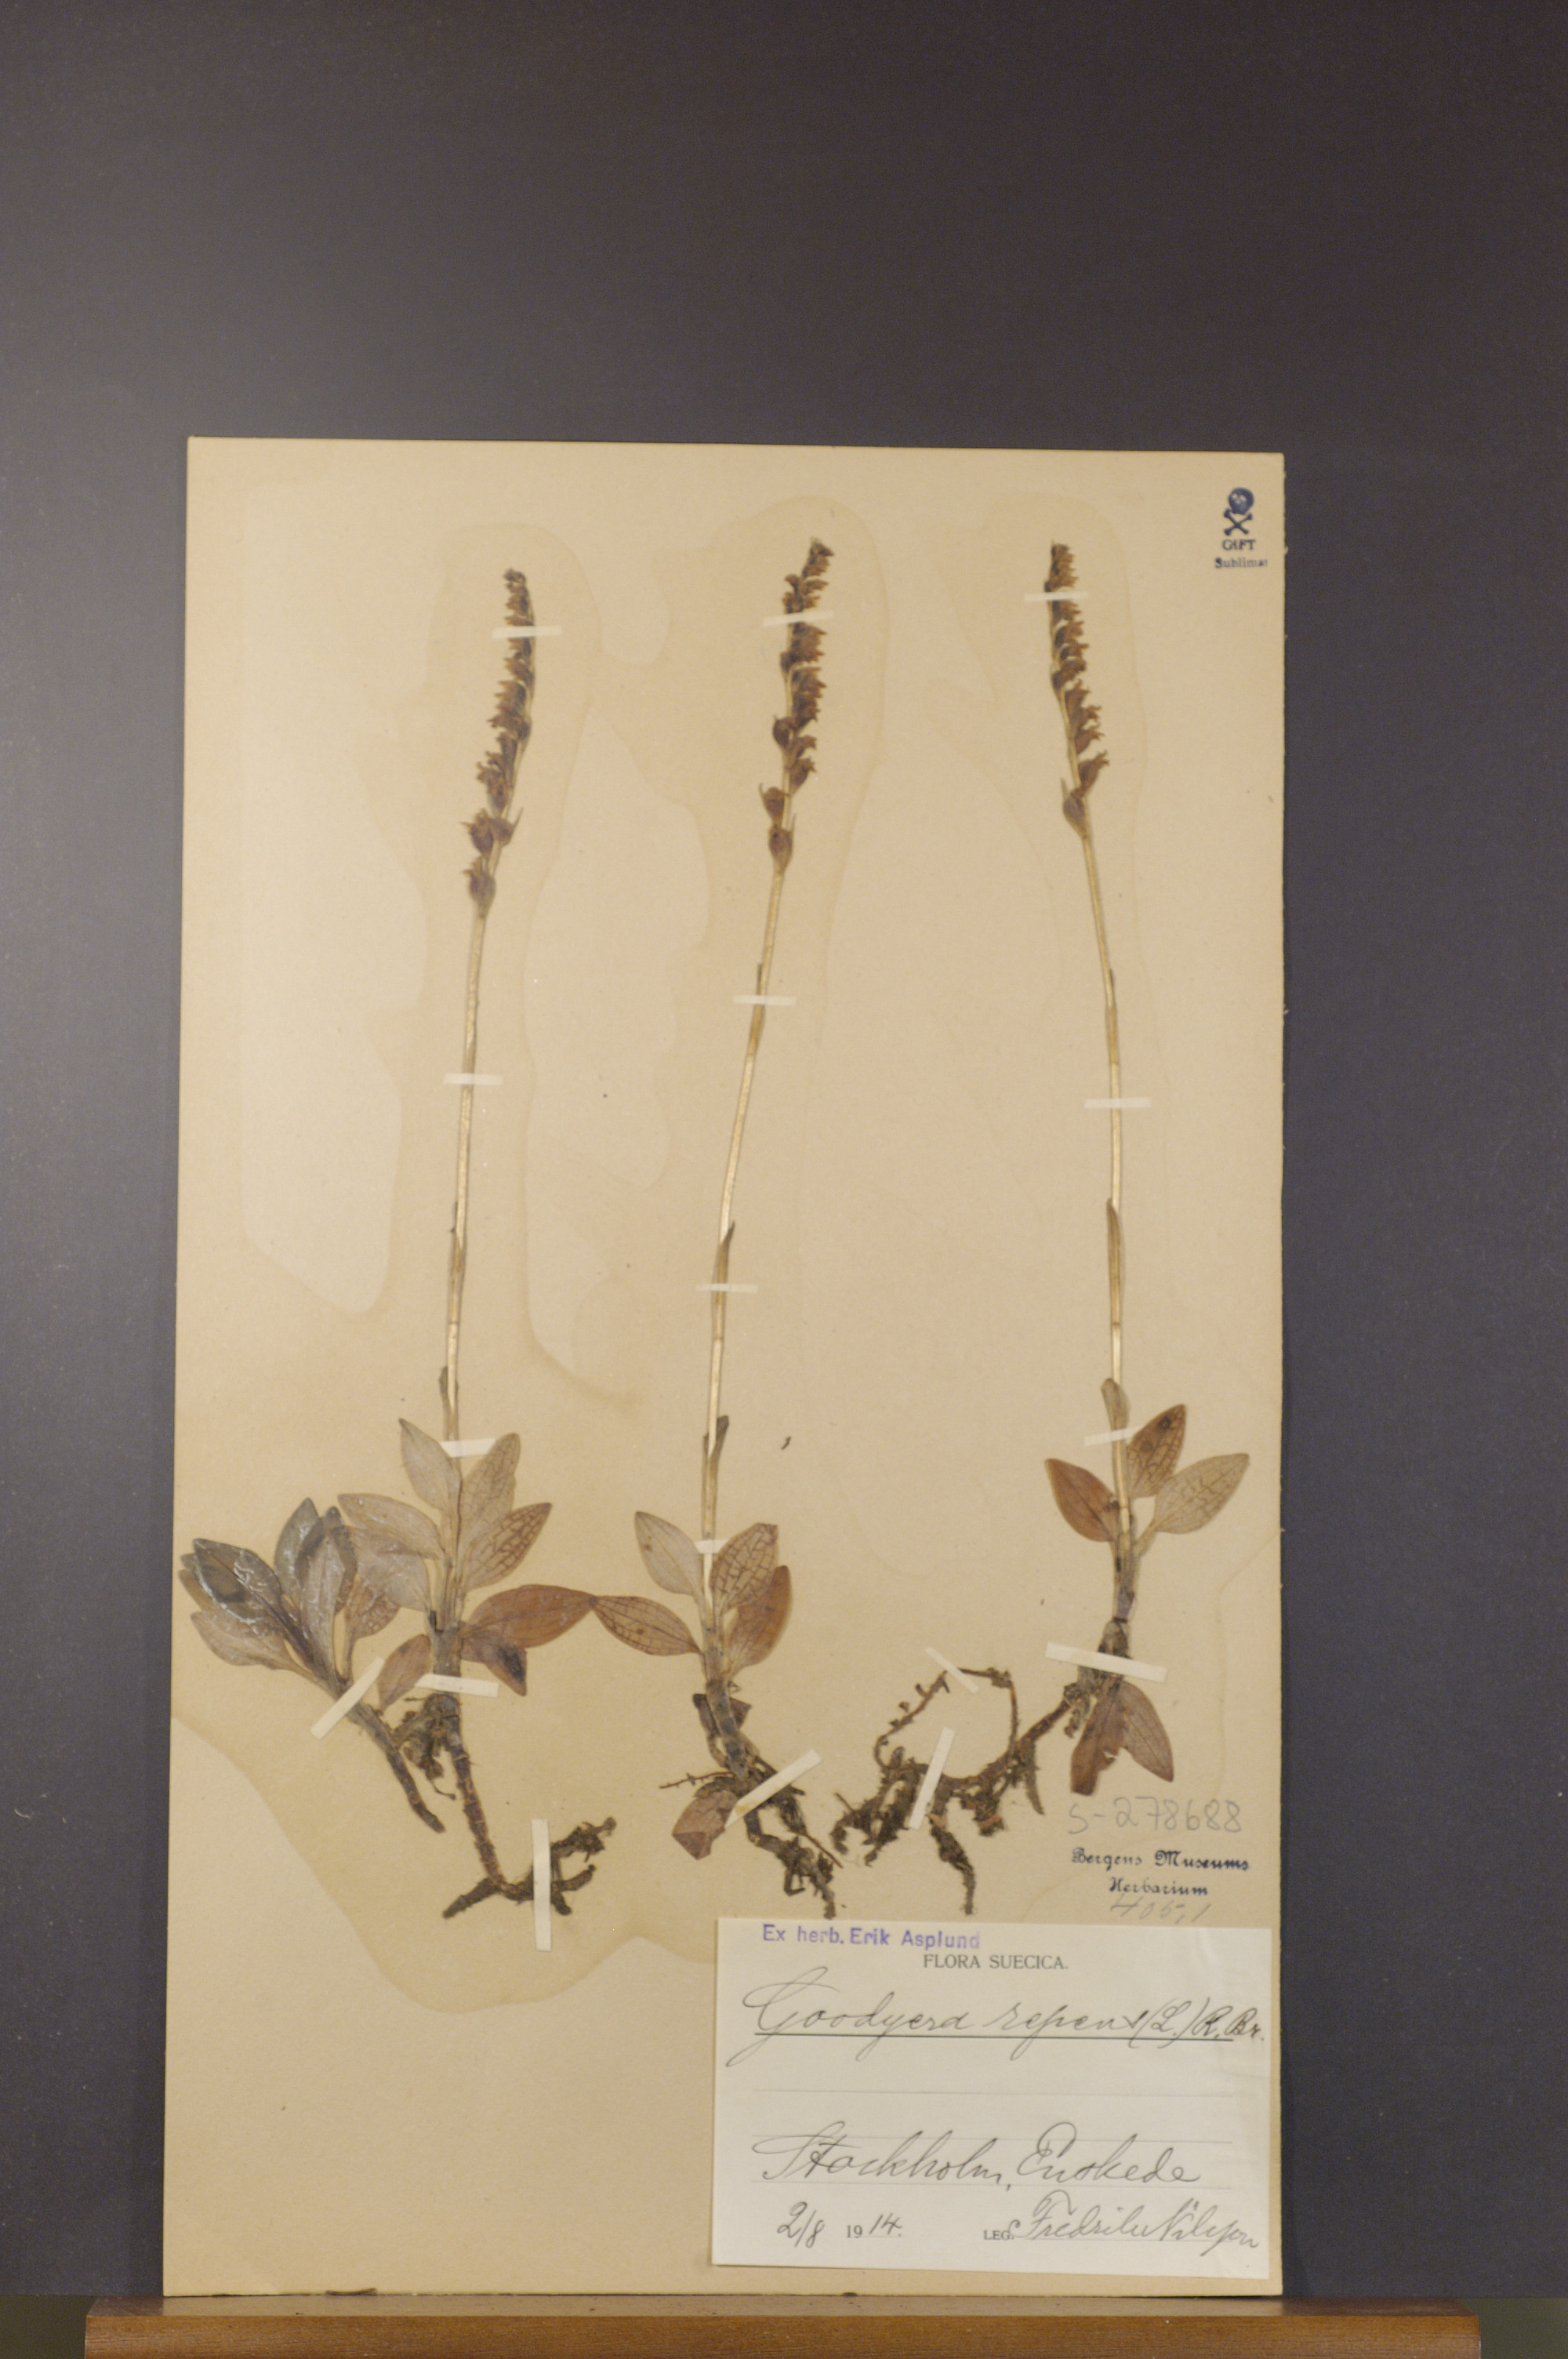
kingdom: Plantae
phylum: Tracheophyta
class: Liliopsida
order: Asparagales
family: Orchidaceae
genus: Goodyera
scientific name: Goodyera repens
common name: Creeping lady's-tresses
